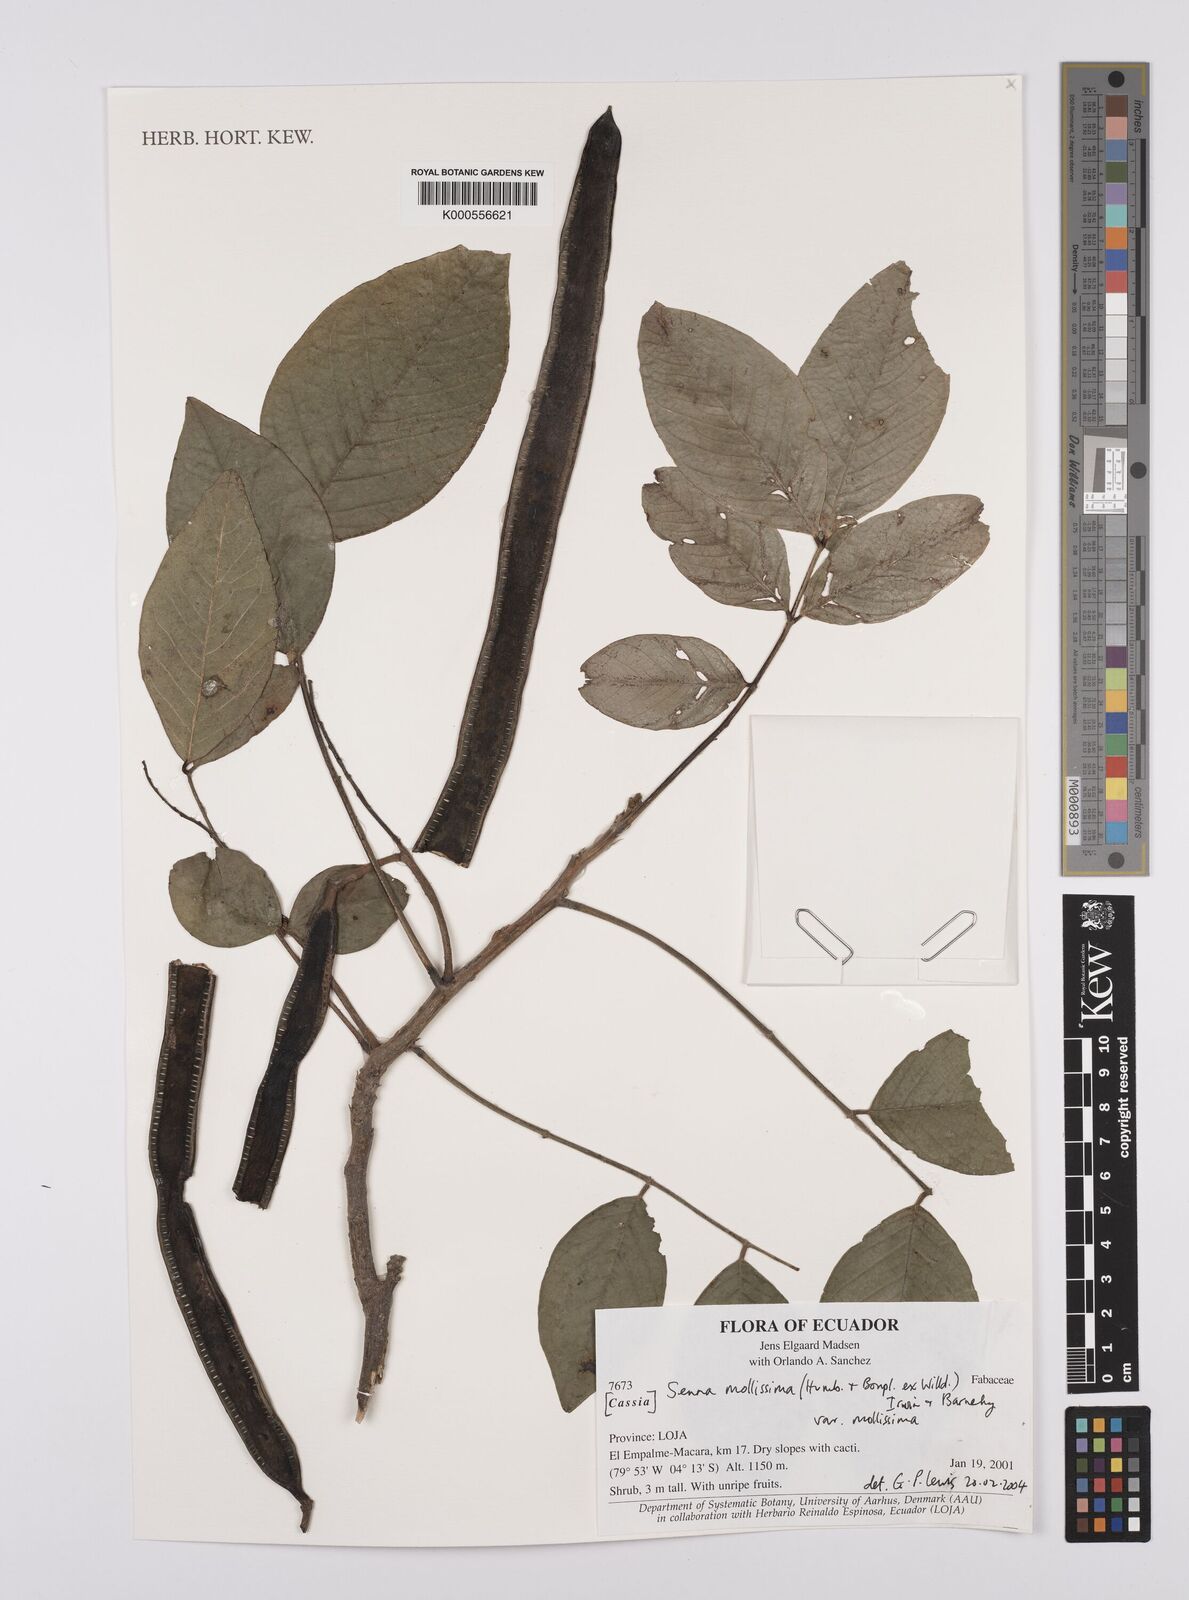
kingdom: Plantae
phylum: Tracheophyta
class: Magnoliopsida
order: Fabales
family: Fabaceae
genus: Senna
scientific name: Senna mollissima
